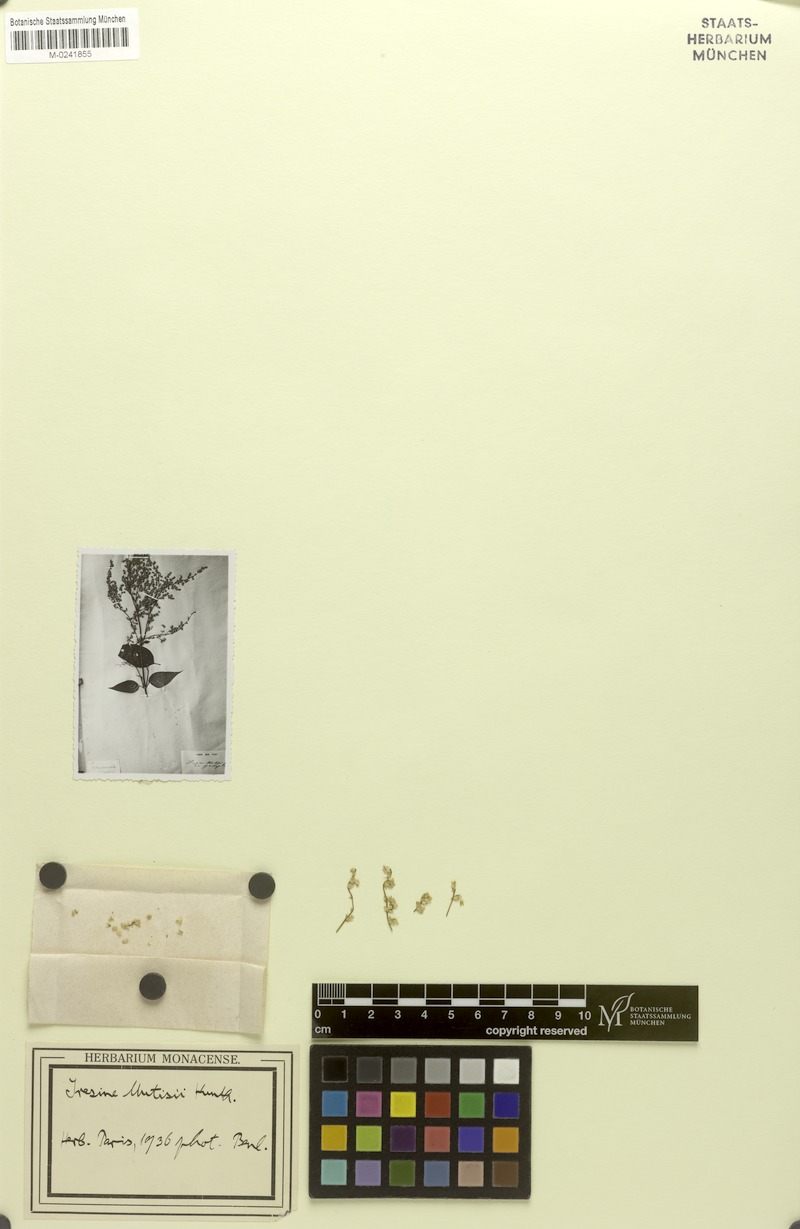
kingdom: Plantae
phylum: Tracheophyta
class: Magnoliopsida
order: Caryophyllales
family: Amaranthaceae
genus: Iresine
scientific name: Iresine diffusa
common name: Juba's-bush
